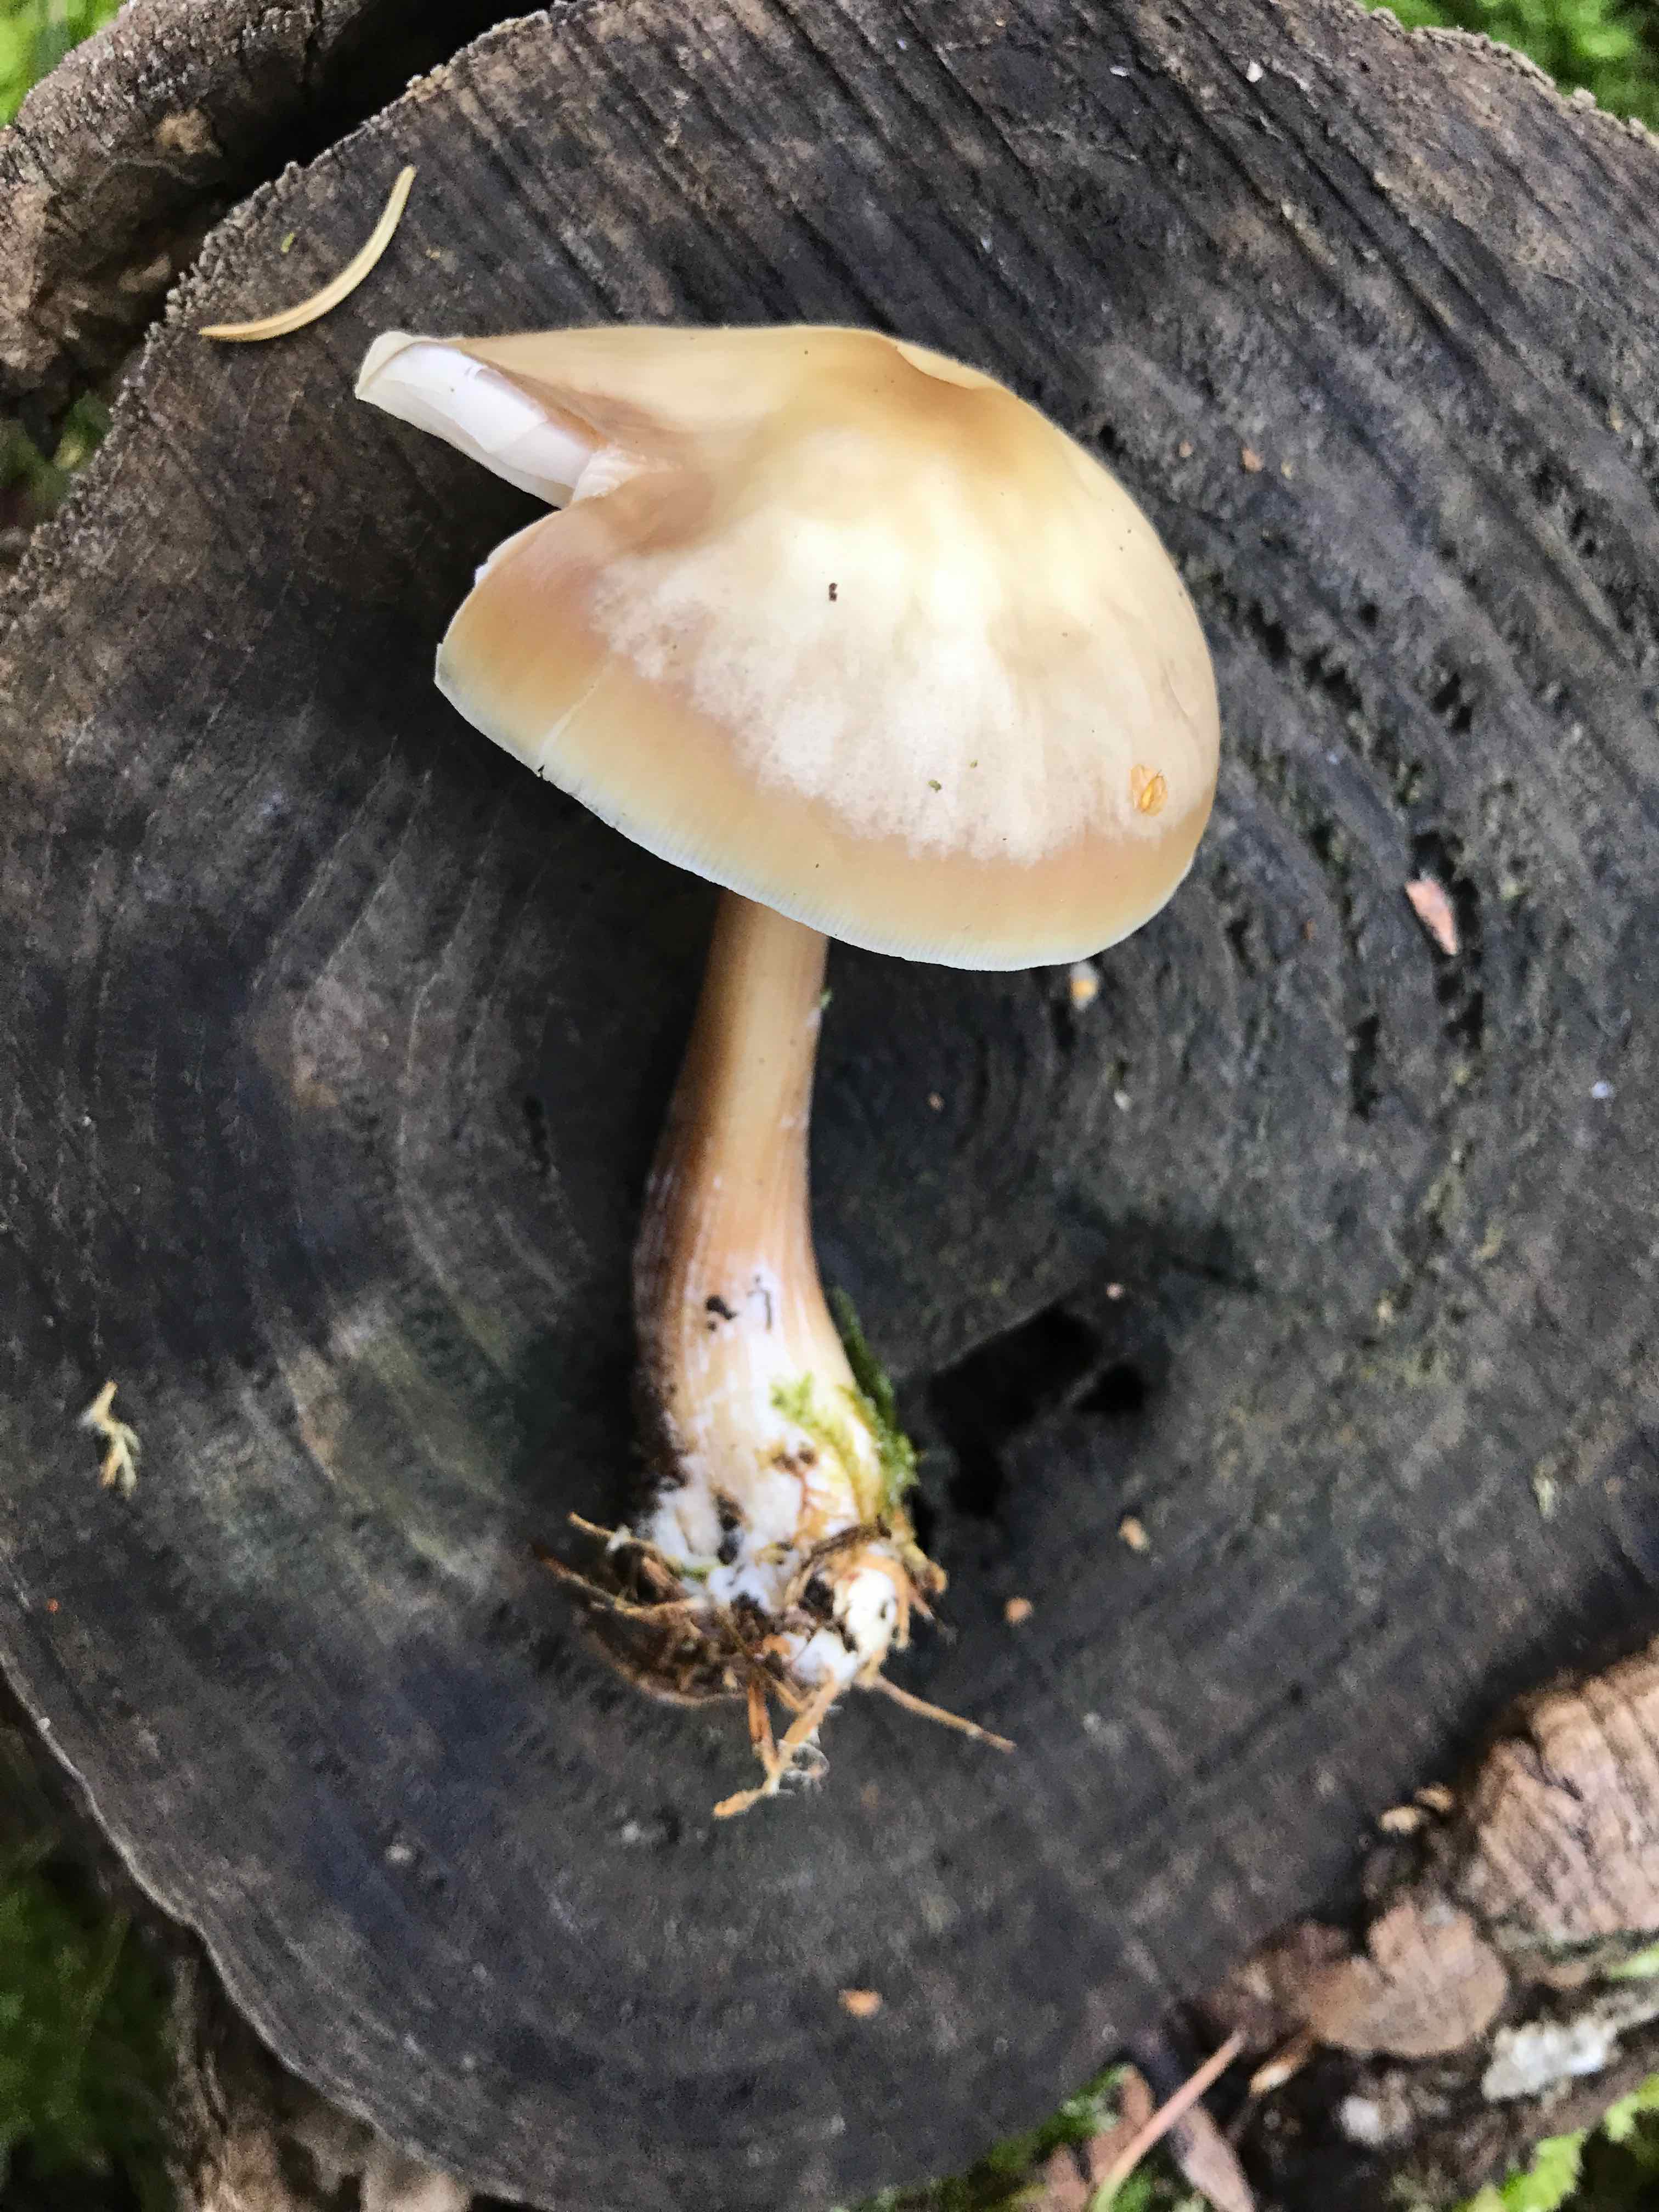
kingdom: Fungi
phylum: Basidiomycota
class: Agaricomycetes
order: Agaricales
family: Omphalotaceae
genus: Rhodocollybia
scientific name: Rhodocollybia asema
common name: horngrå fladhat
